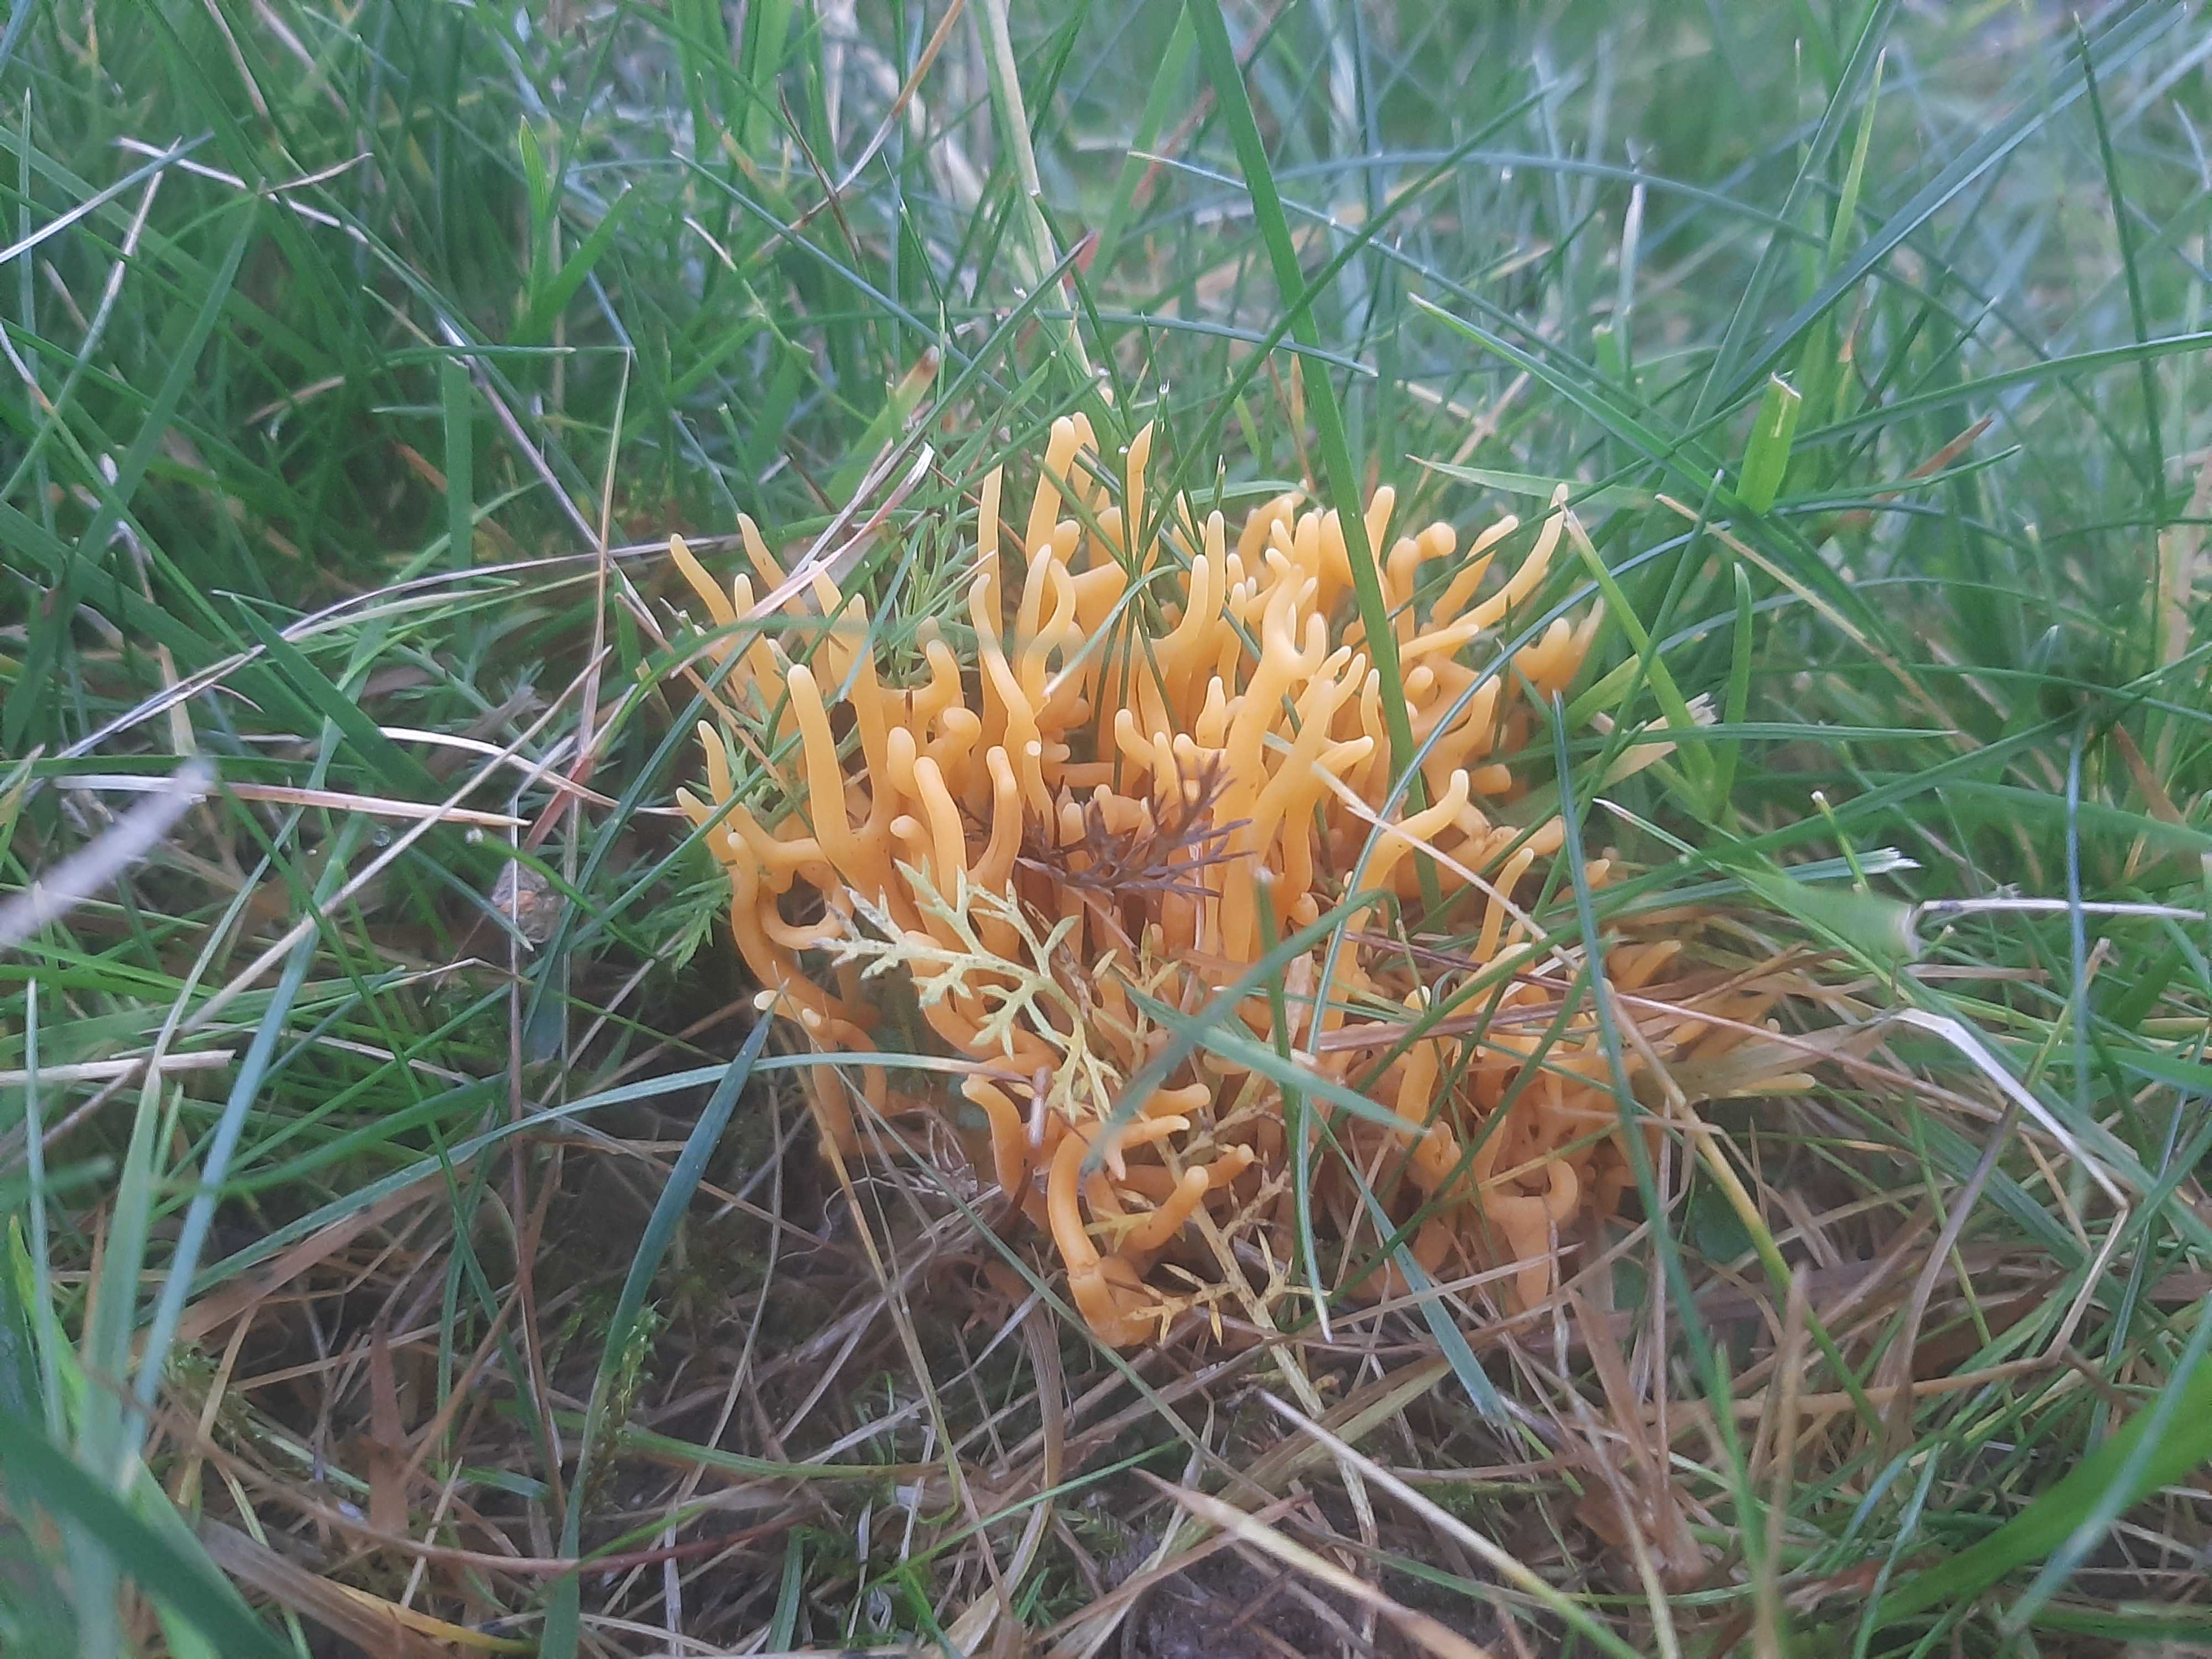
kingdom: Fungi
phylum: Basidiomycota
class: Agaricomycetes
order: Agaricales
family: Clavariaceae
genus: Clavulinopsis
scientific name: Clavulinopsis corniculata
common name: eng-køllesvamp
